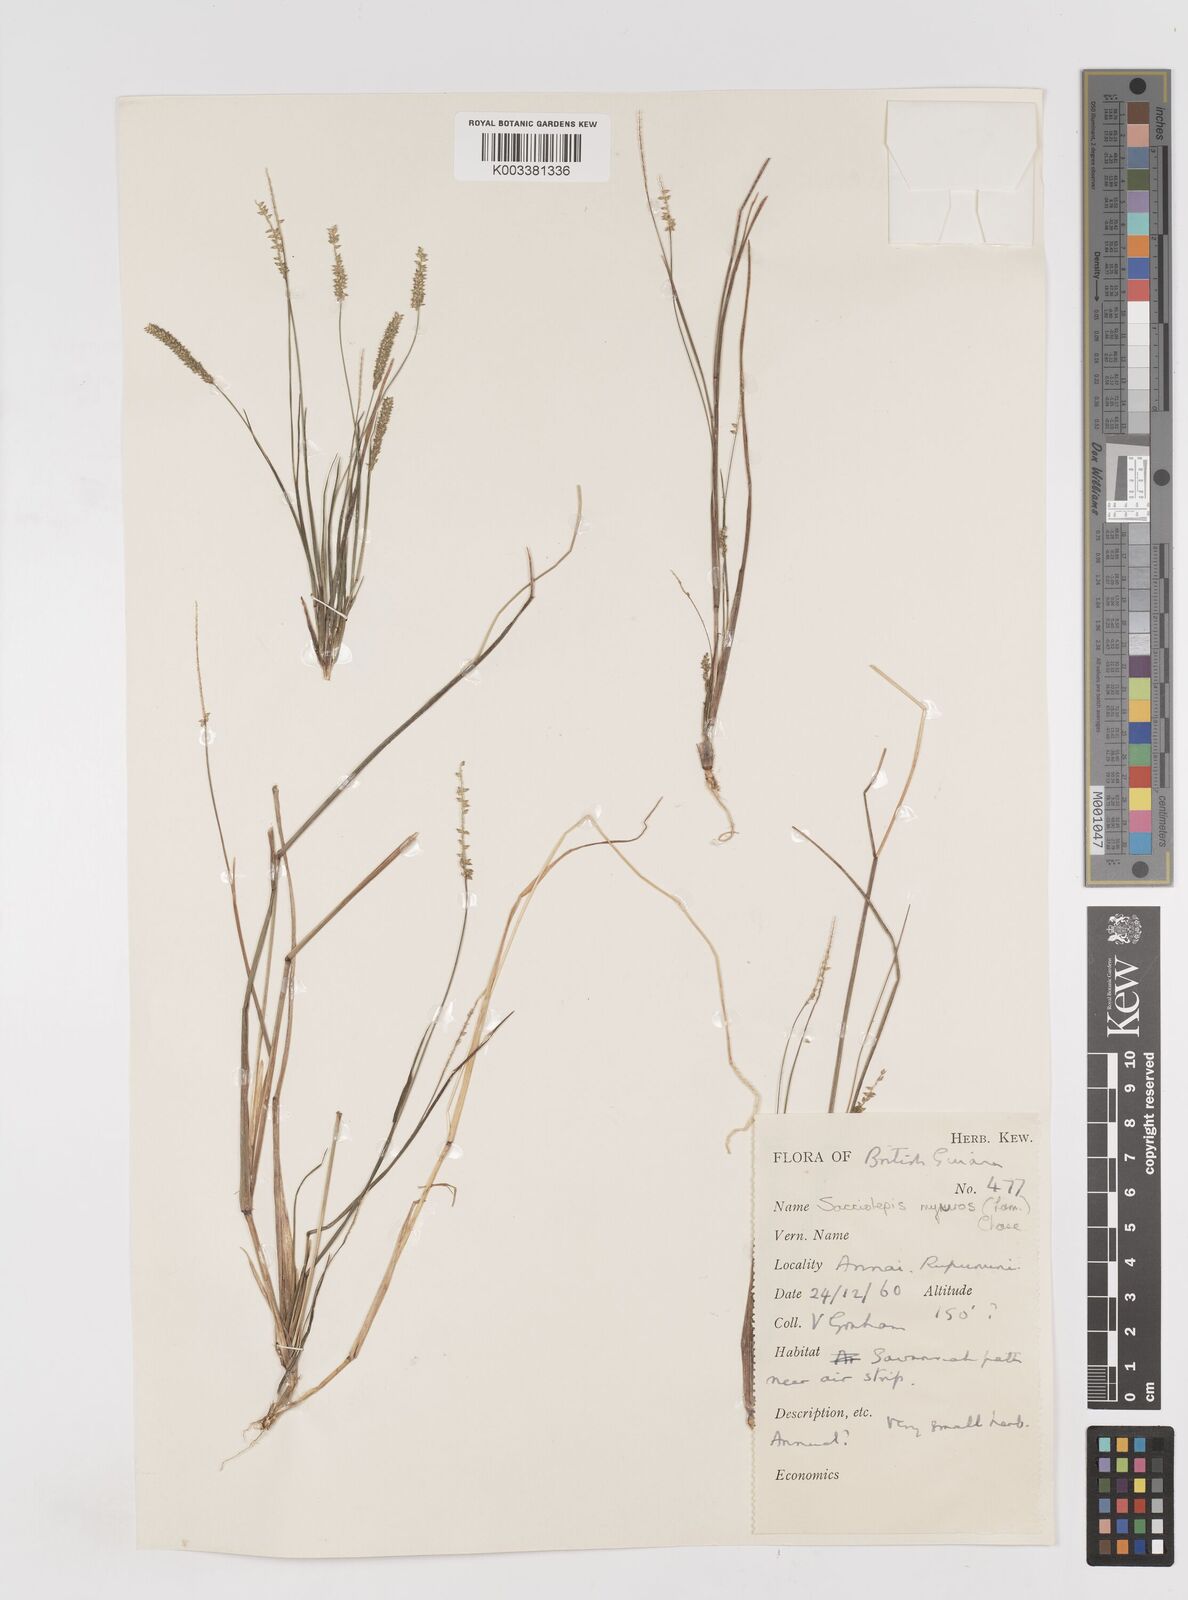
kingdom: Plantae
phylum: Tracheophyta
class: Liliopsida
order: Poales
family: Poaceae
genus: Sacciolepis
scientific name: Sacciolepis myuros
